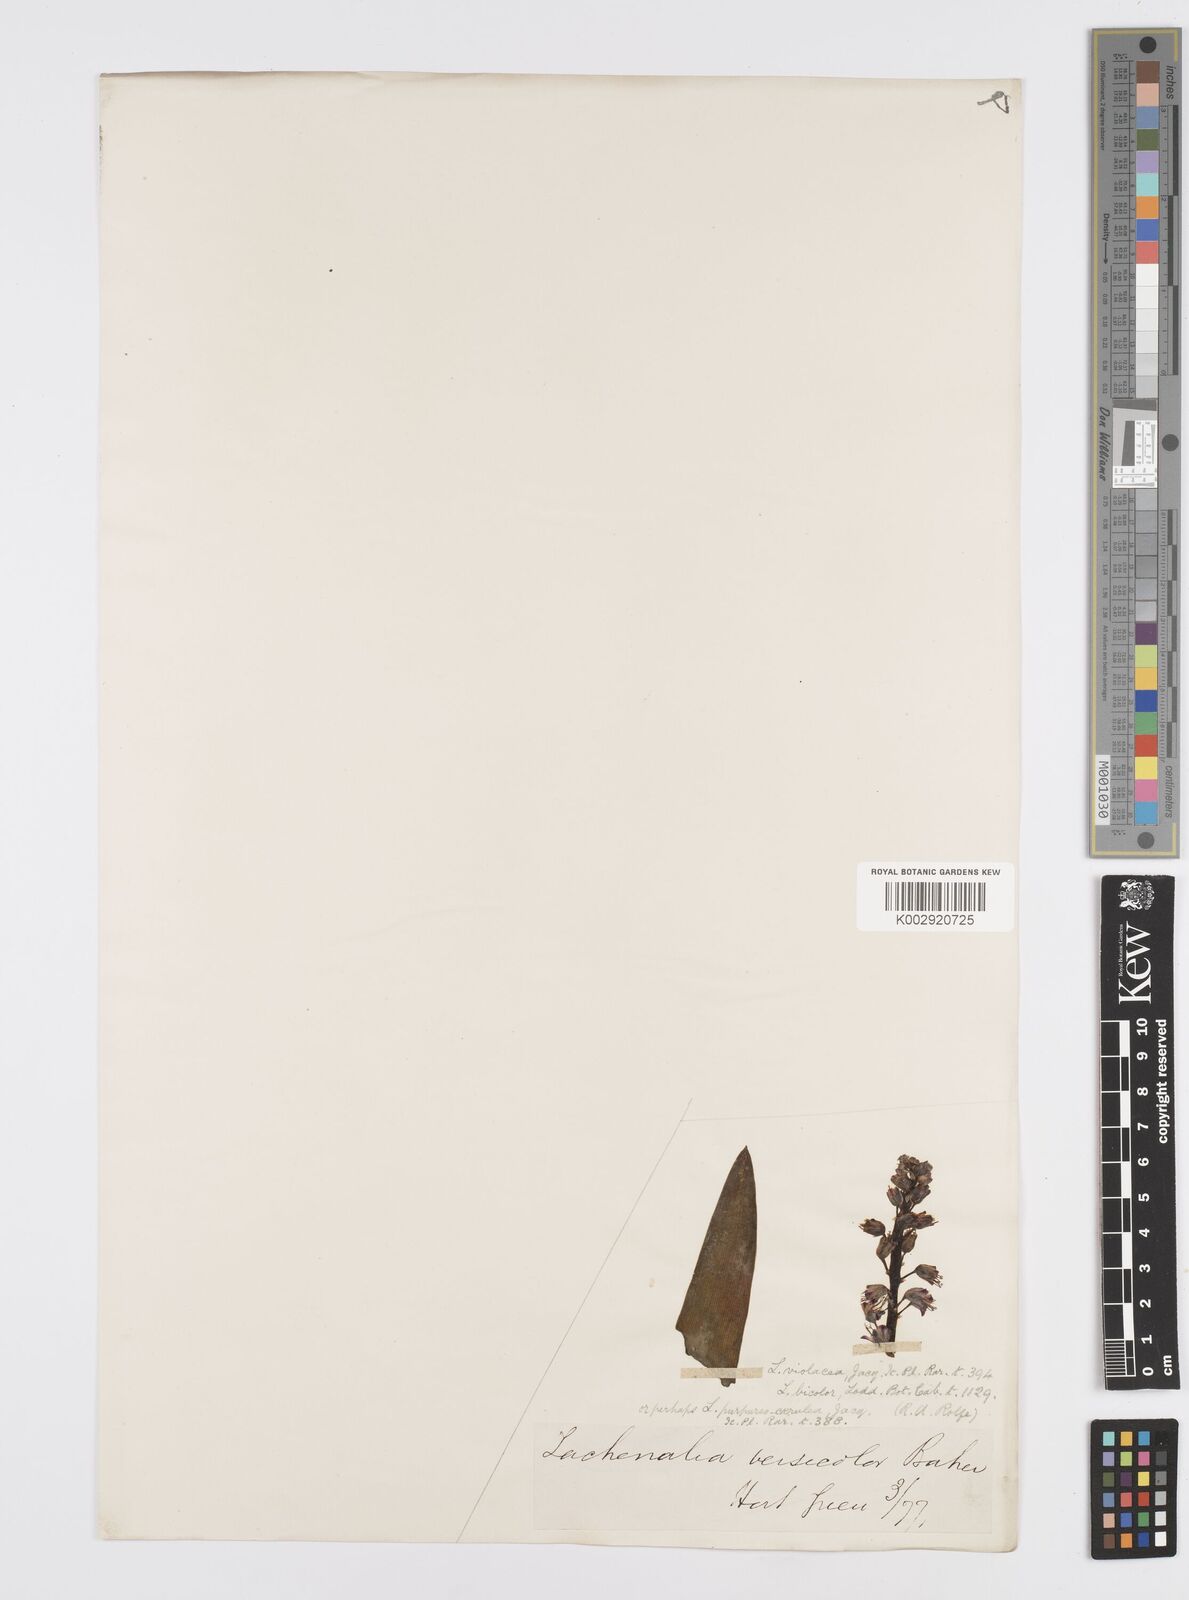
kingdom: Plantae
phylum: Tracheophyta
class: Liliopsida
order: Asparagales
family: Asparagaceae
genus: Lachenalia
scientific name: Lachenalia pallida
